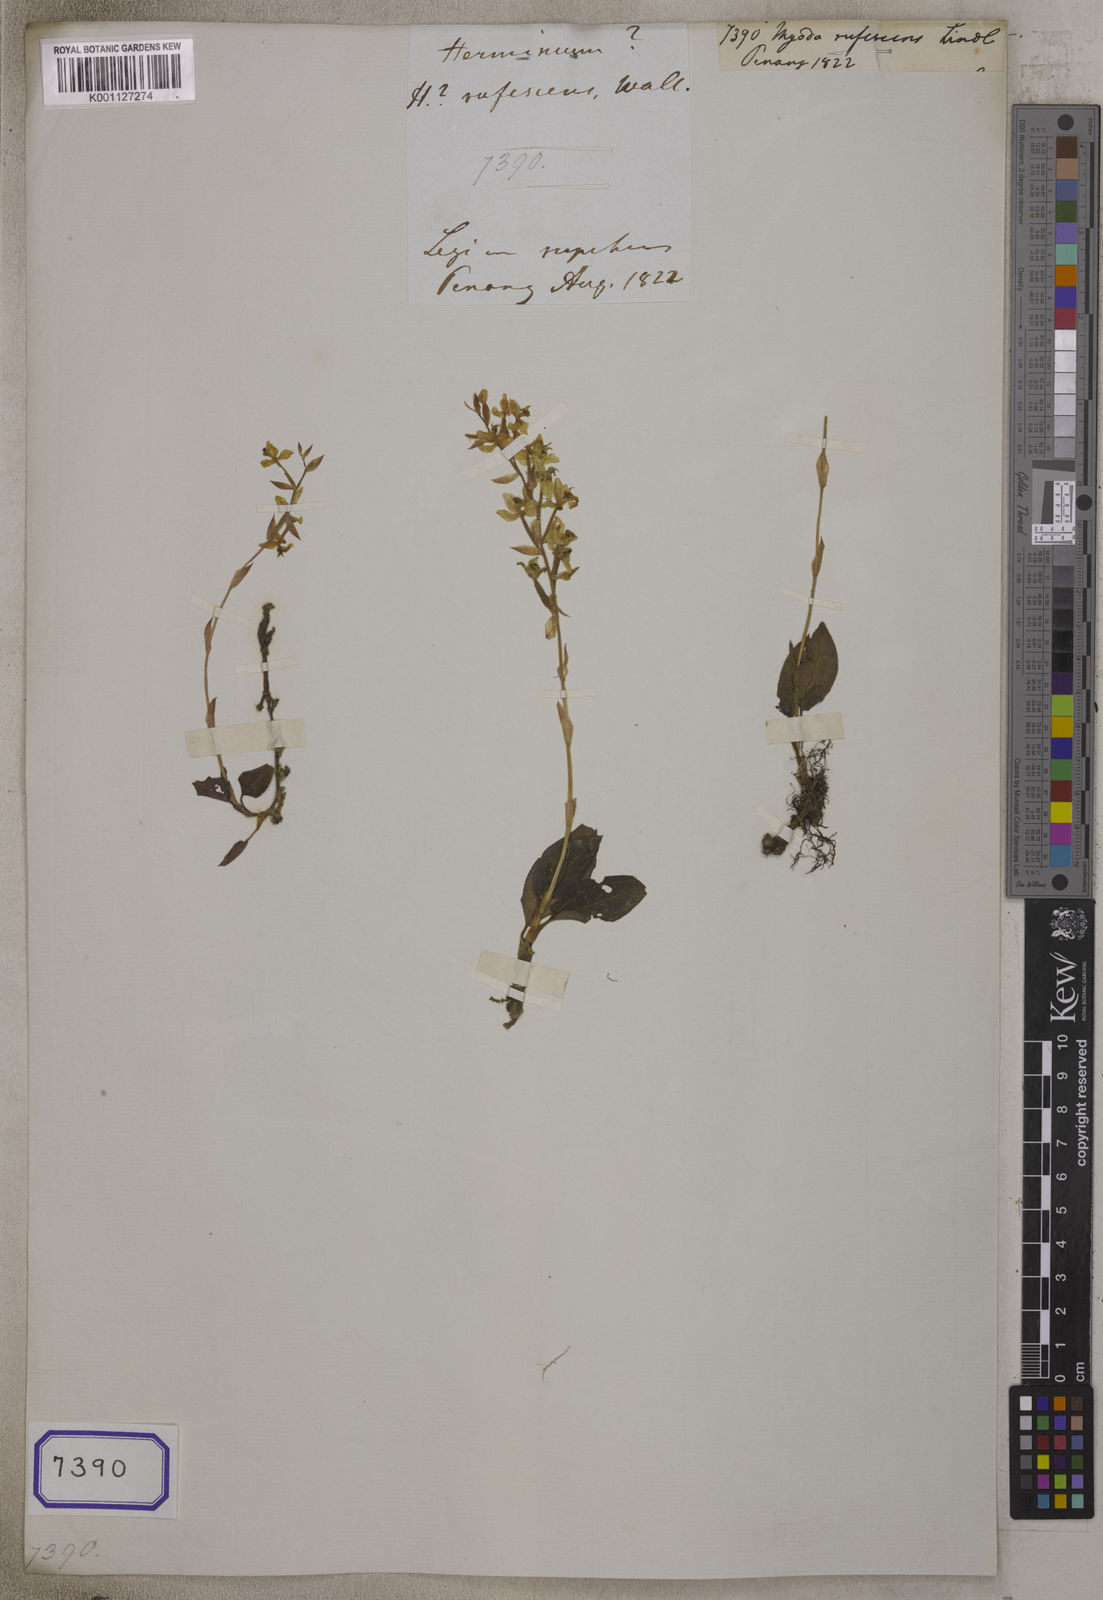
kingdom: Plantae
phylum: Tracheophyta
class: Liliopsida
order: Asparagales
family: Orchidaceae
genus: Ludisia
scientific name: Ludisia discolor
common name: Jewel orchid
